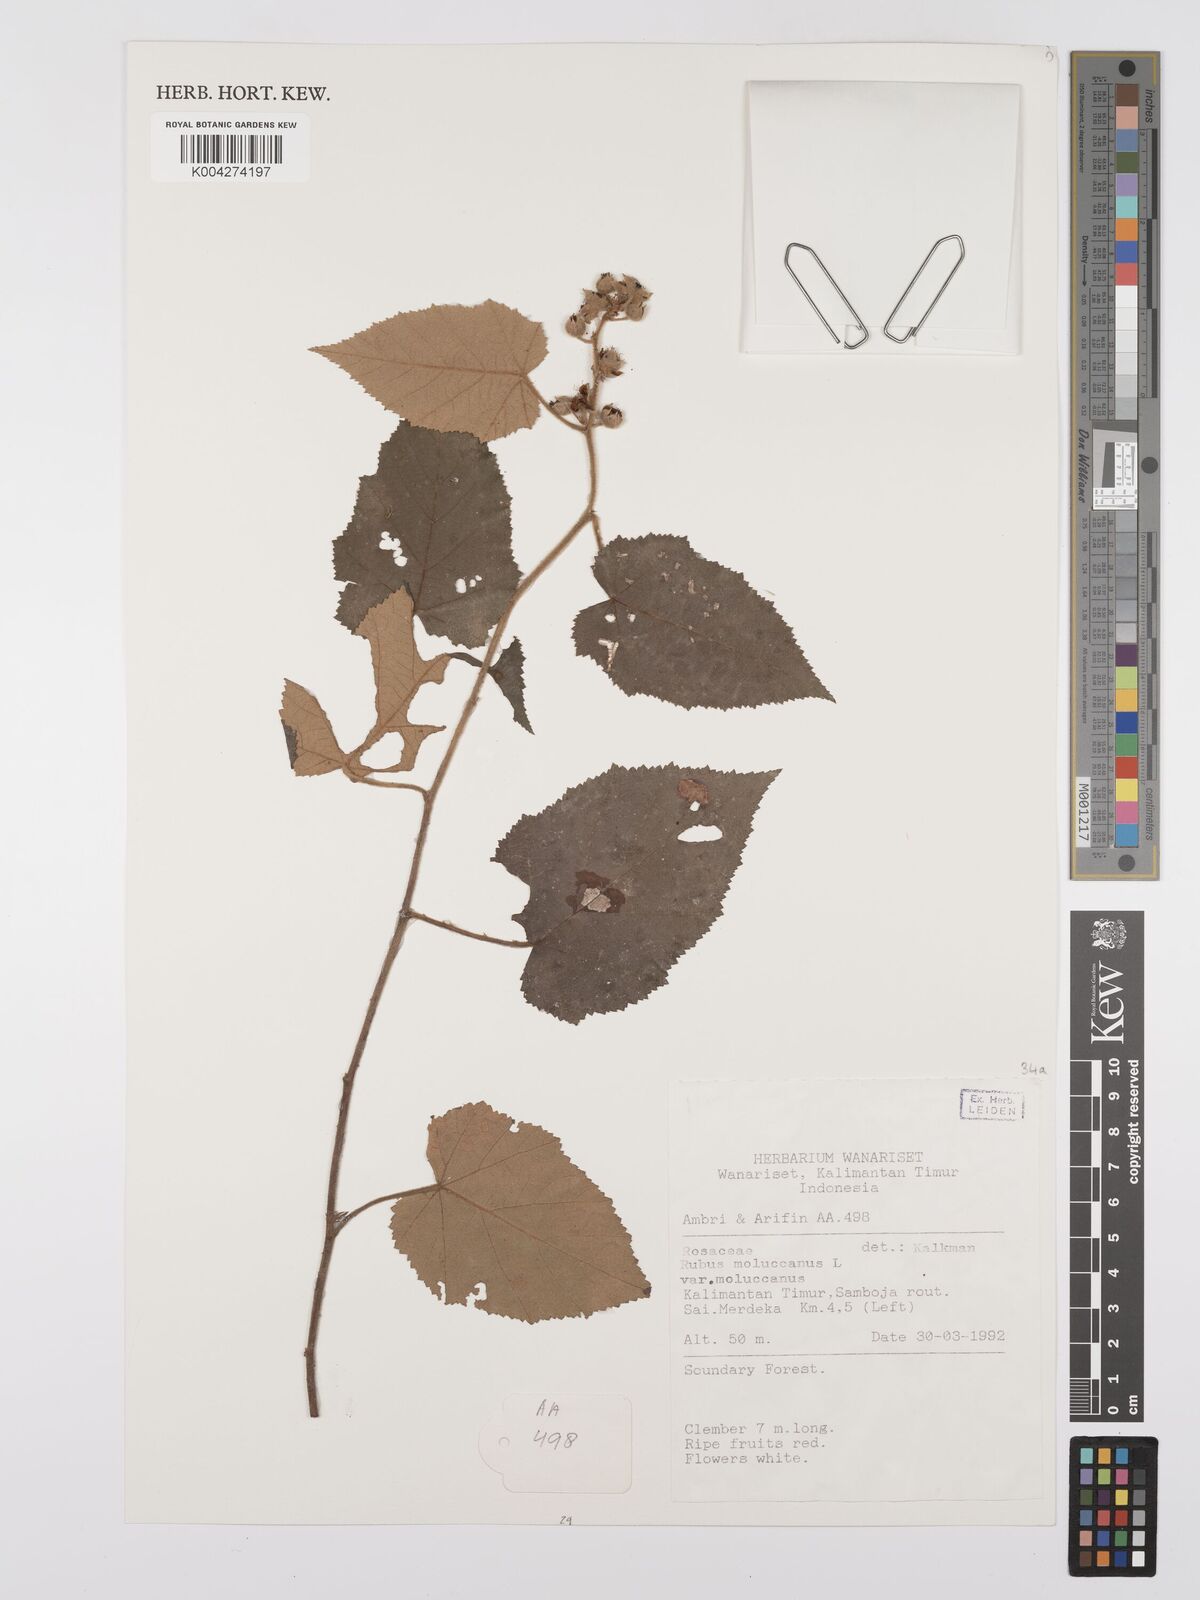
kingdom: Plantae
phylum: Tracheophyta
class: Magnoliopsida
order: Rosales
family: Rosaceae
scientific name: Rosaceae
